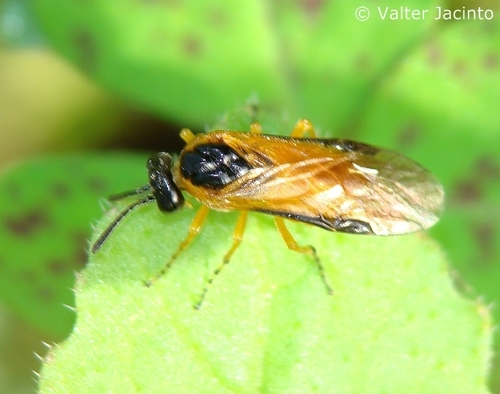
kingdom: Animalia
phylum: Arthropoda
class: Insecta
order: Hymenoptera
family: Tenthredinidae
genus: Athalia
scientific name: Athalia circularis
